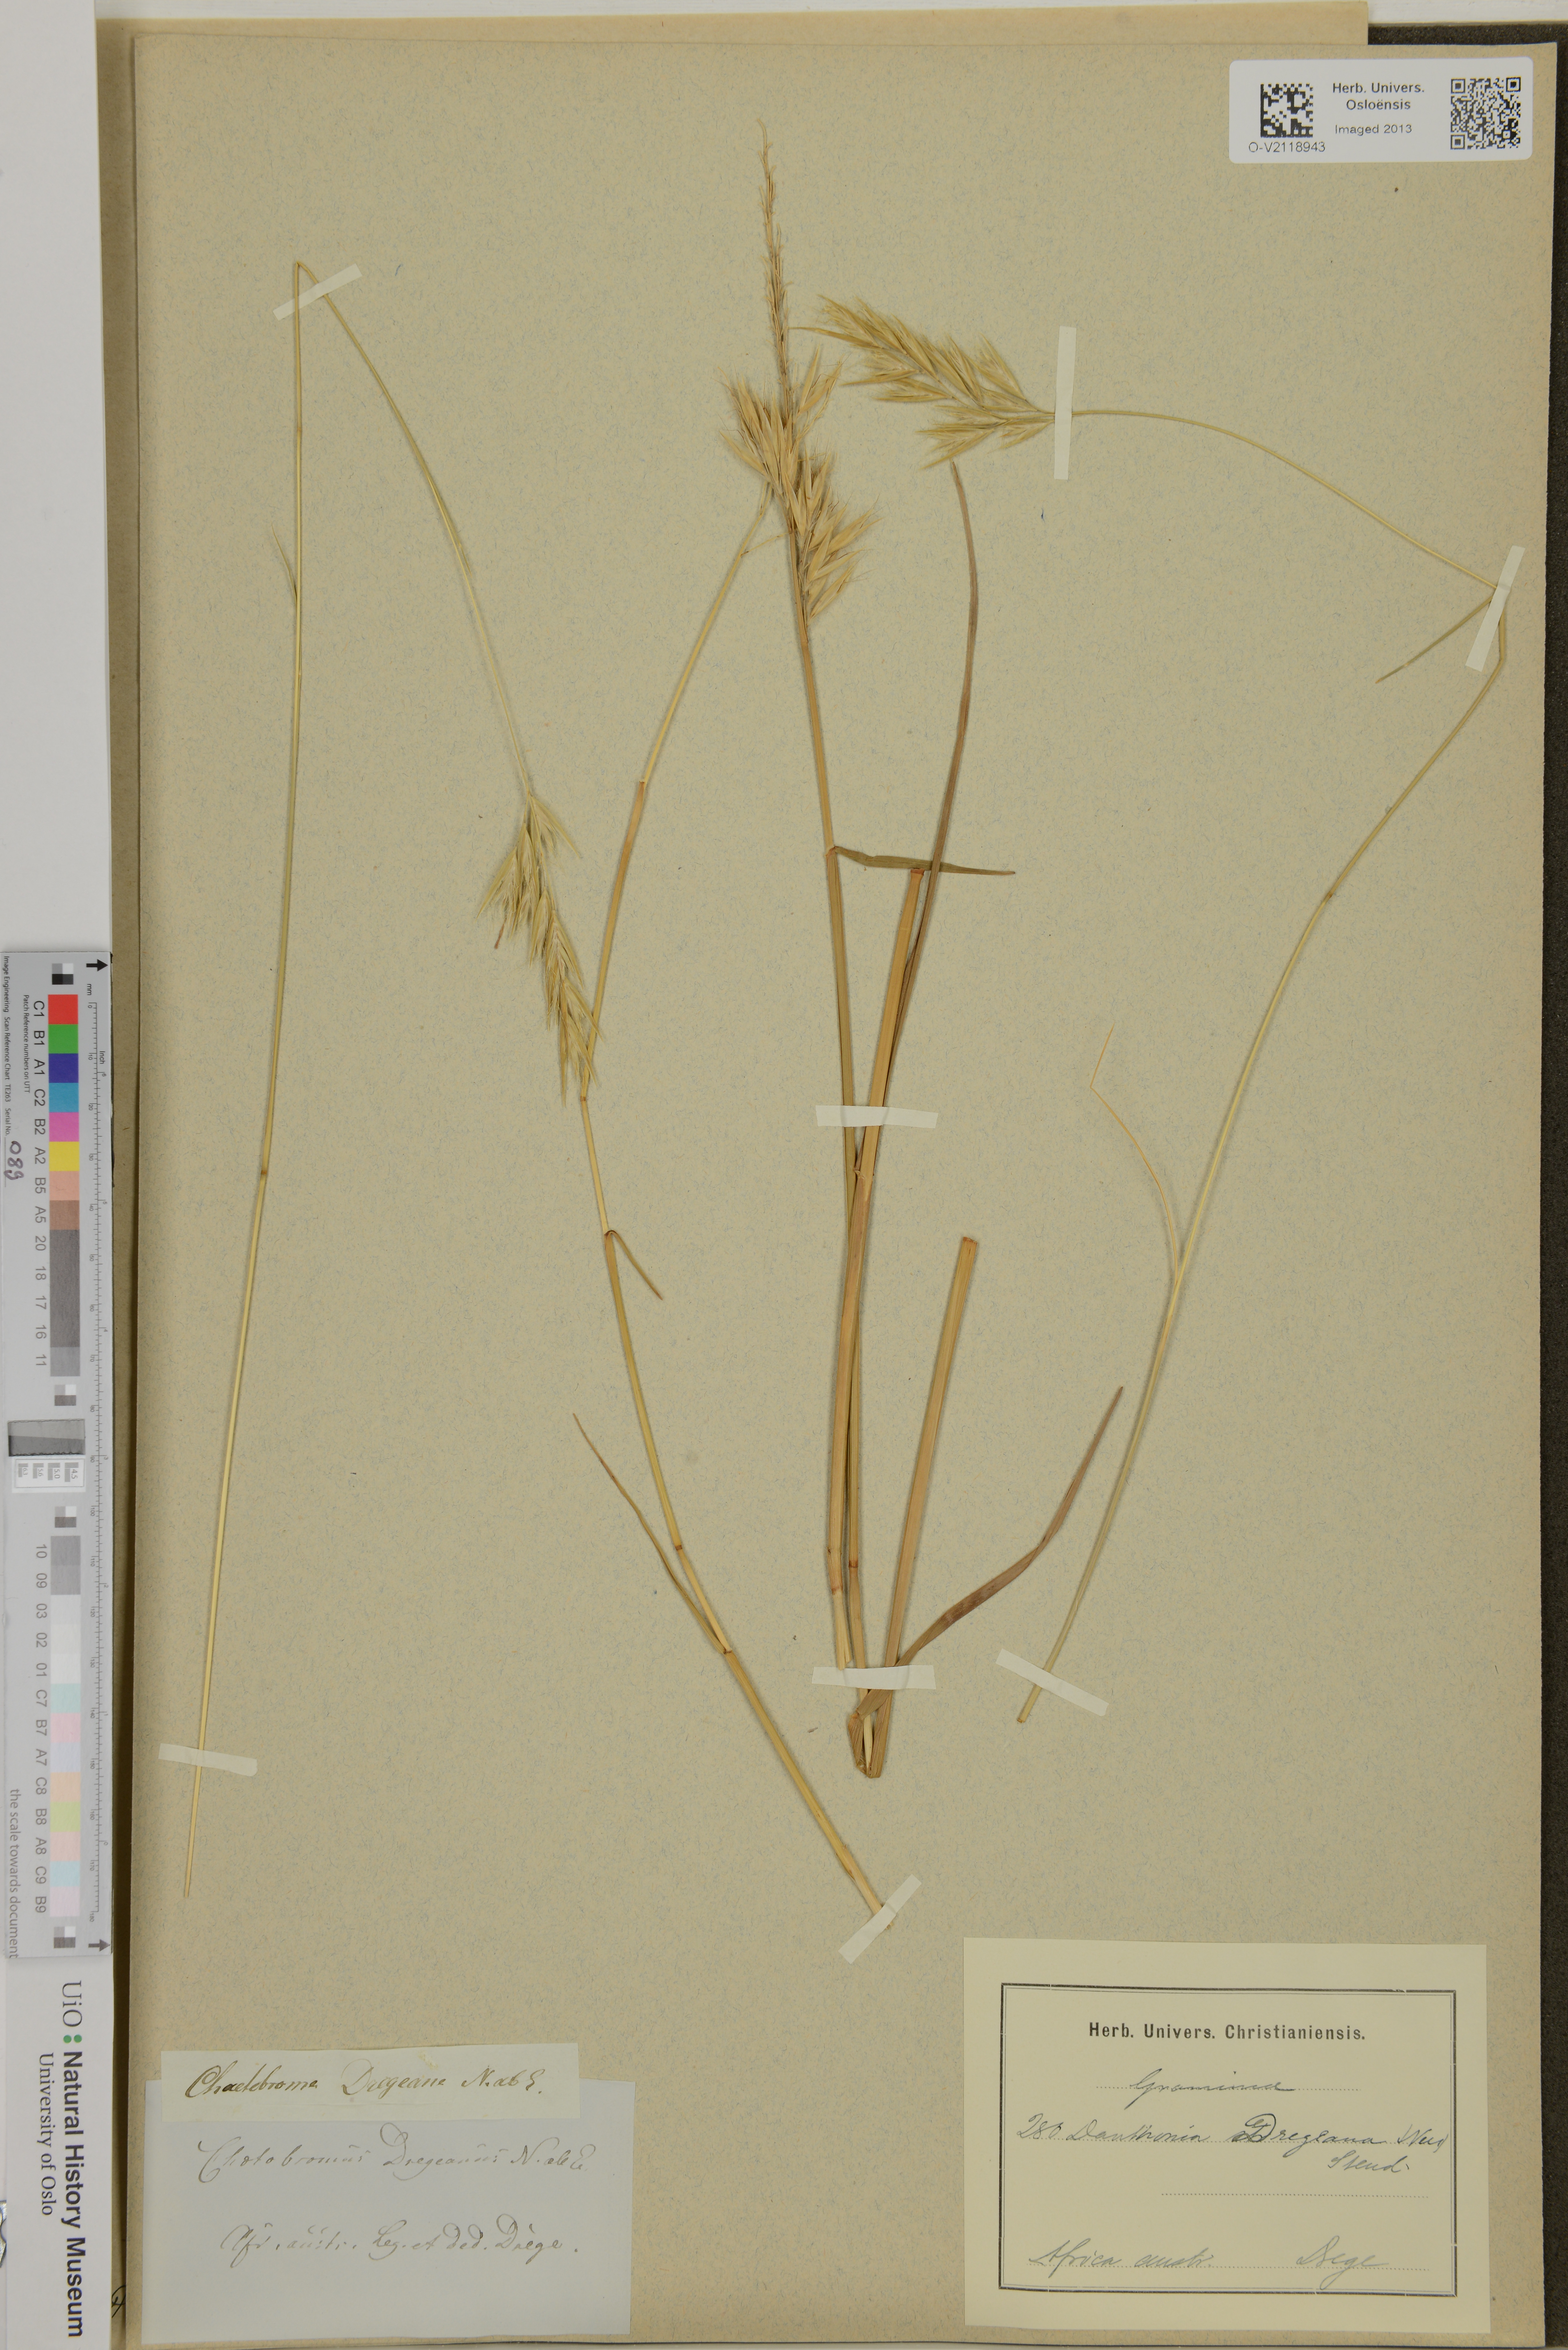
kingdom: Plantae
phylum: Tracheophyta
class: Liliopsida
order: Poales
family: Poaceae
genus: Chaetobromus
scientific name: Chaetobromus involucratus
